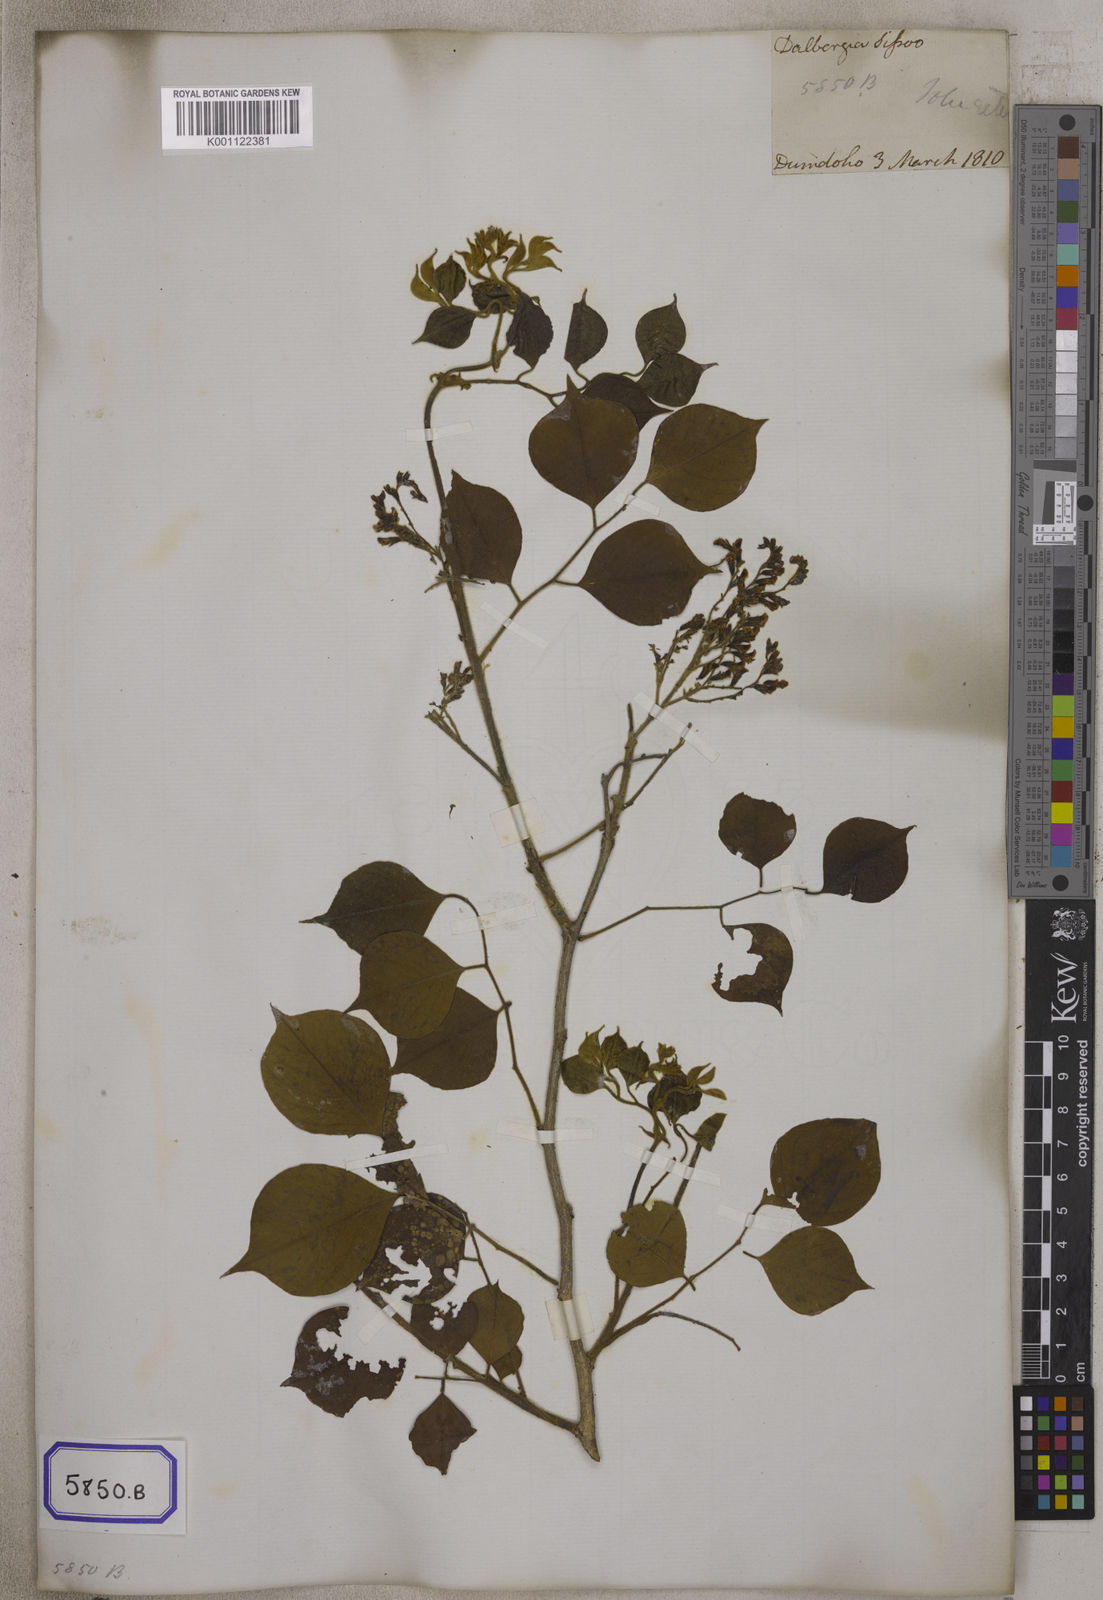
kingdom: Plantae
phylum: Tracheophyta
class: Magnoliopsida
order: Fabales
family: Fabaceae
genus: Dalbergia
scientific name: Dalbergia
